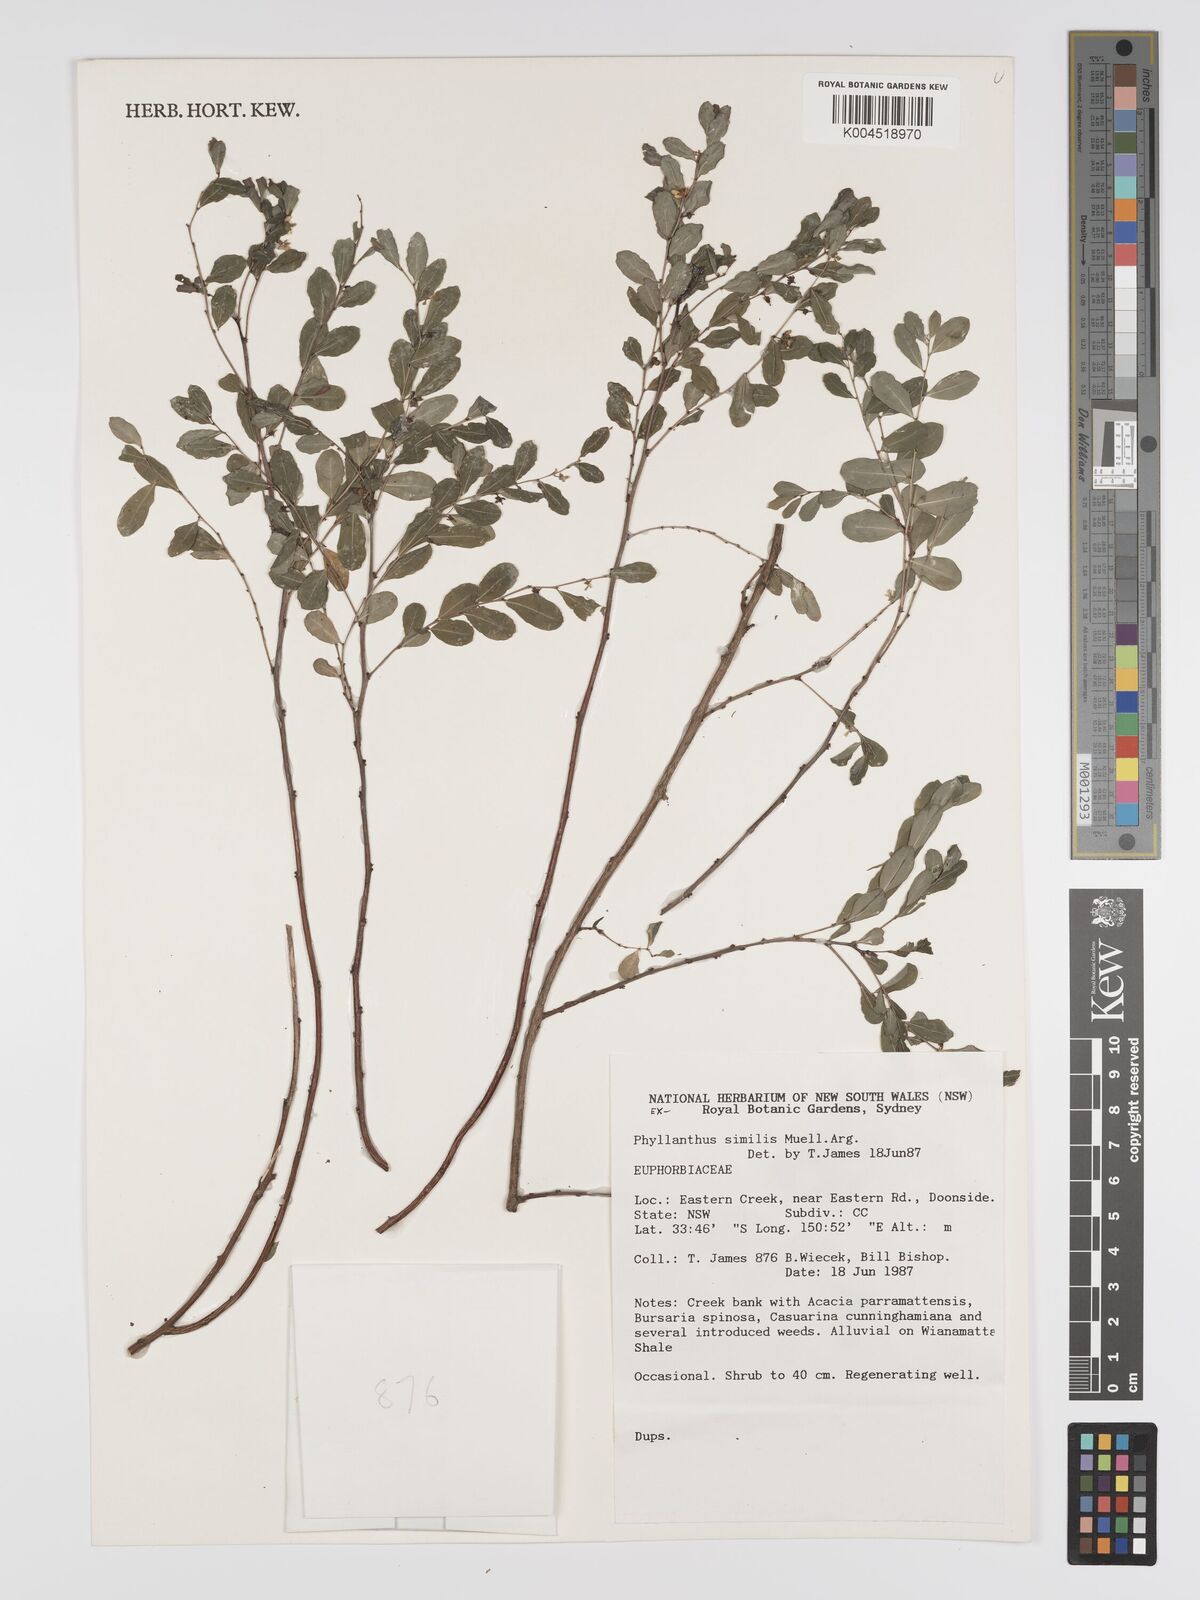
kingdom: Plantae
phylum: Tracheophyta
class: Magnoliopsida
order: Malpighiales
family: Phyllanthaceae
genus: Phyllanthus
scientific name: Phyllanthus similis
